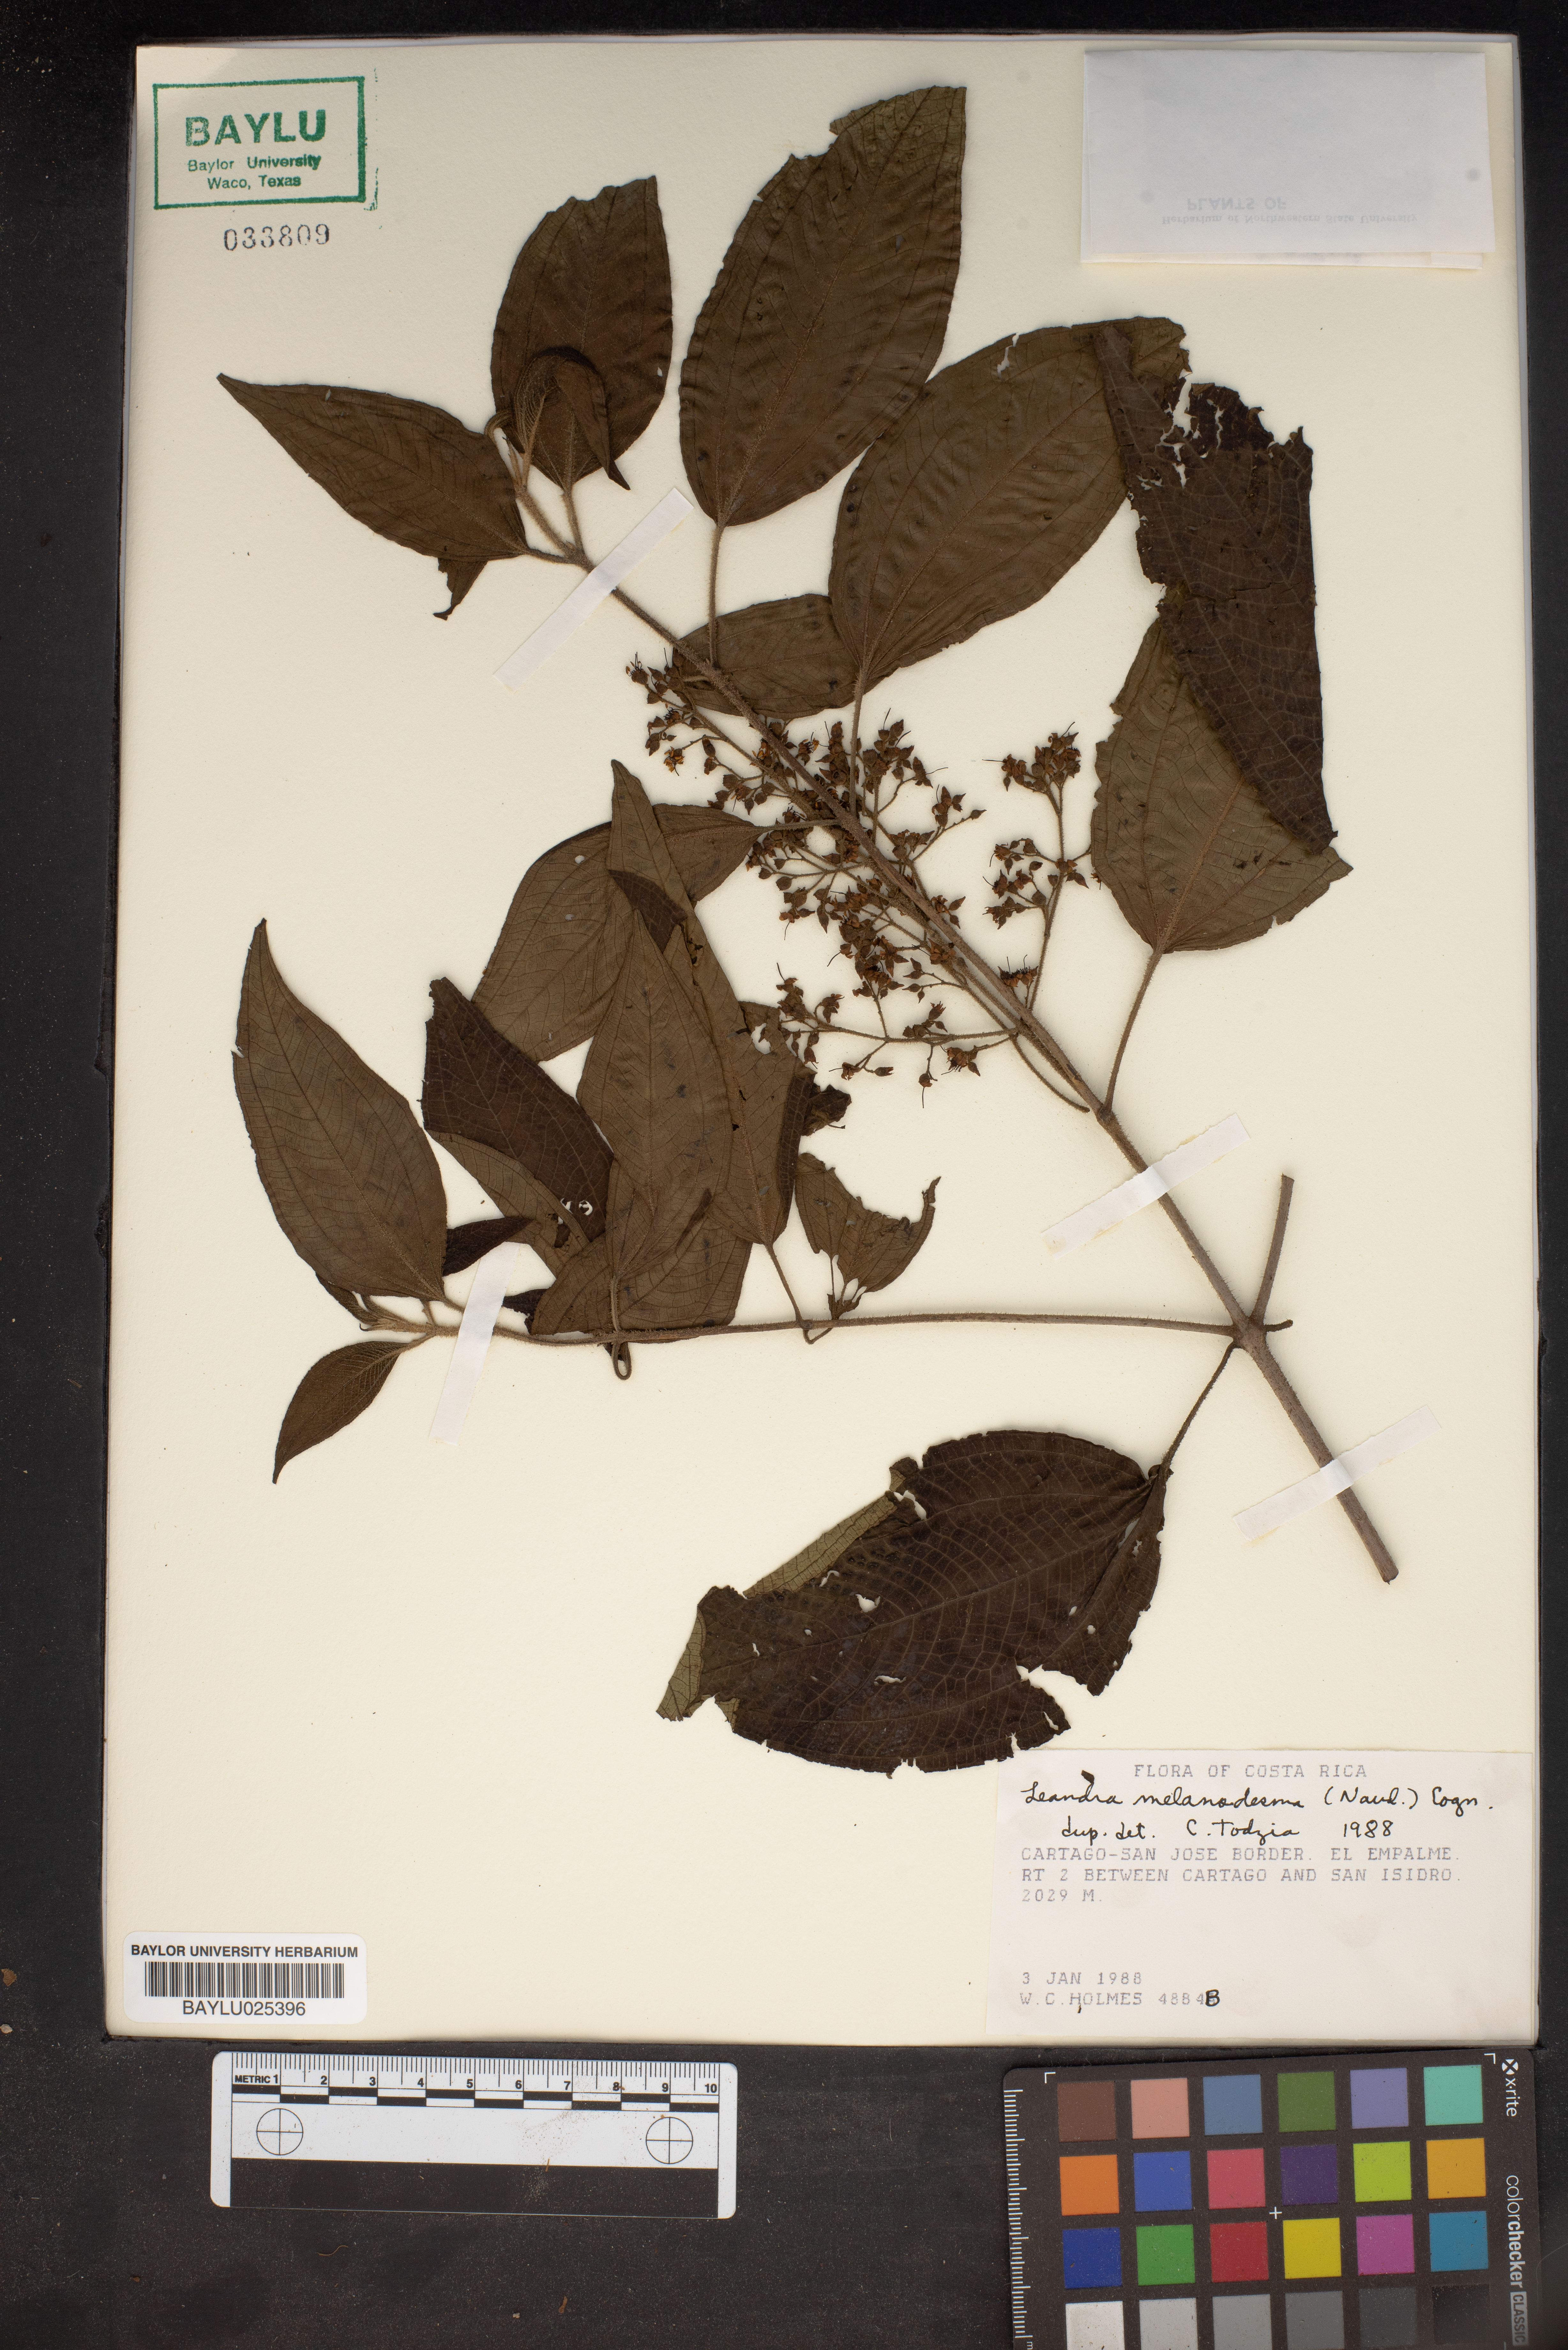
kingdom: Plantae
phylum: Tracheophyta
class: Magnoliopsida
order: Myrtales
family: Melastomataceae
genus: Miconia
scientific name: Miconia melanodesma
